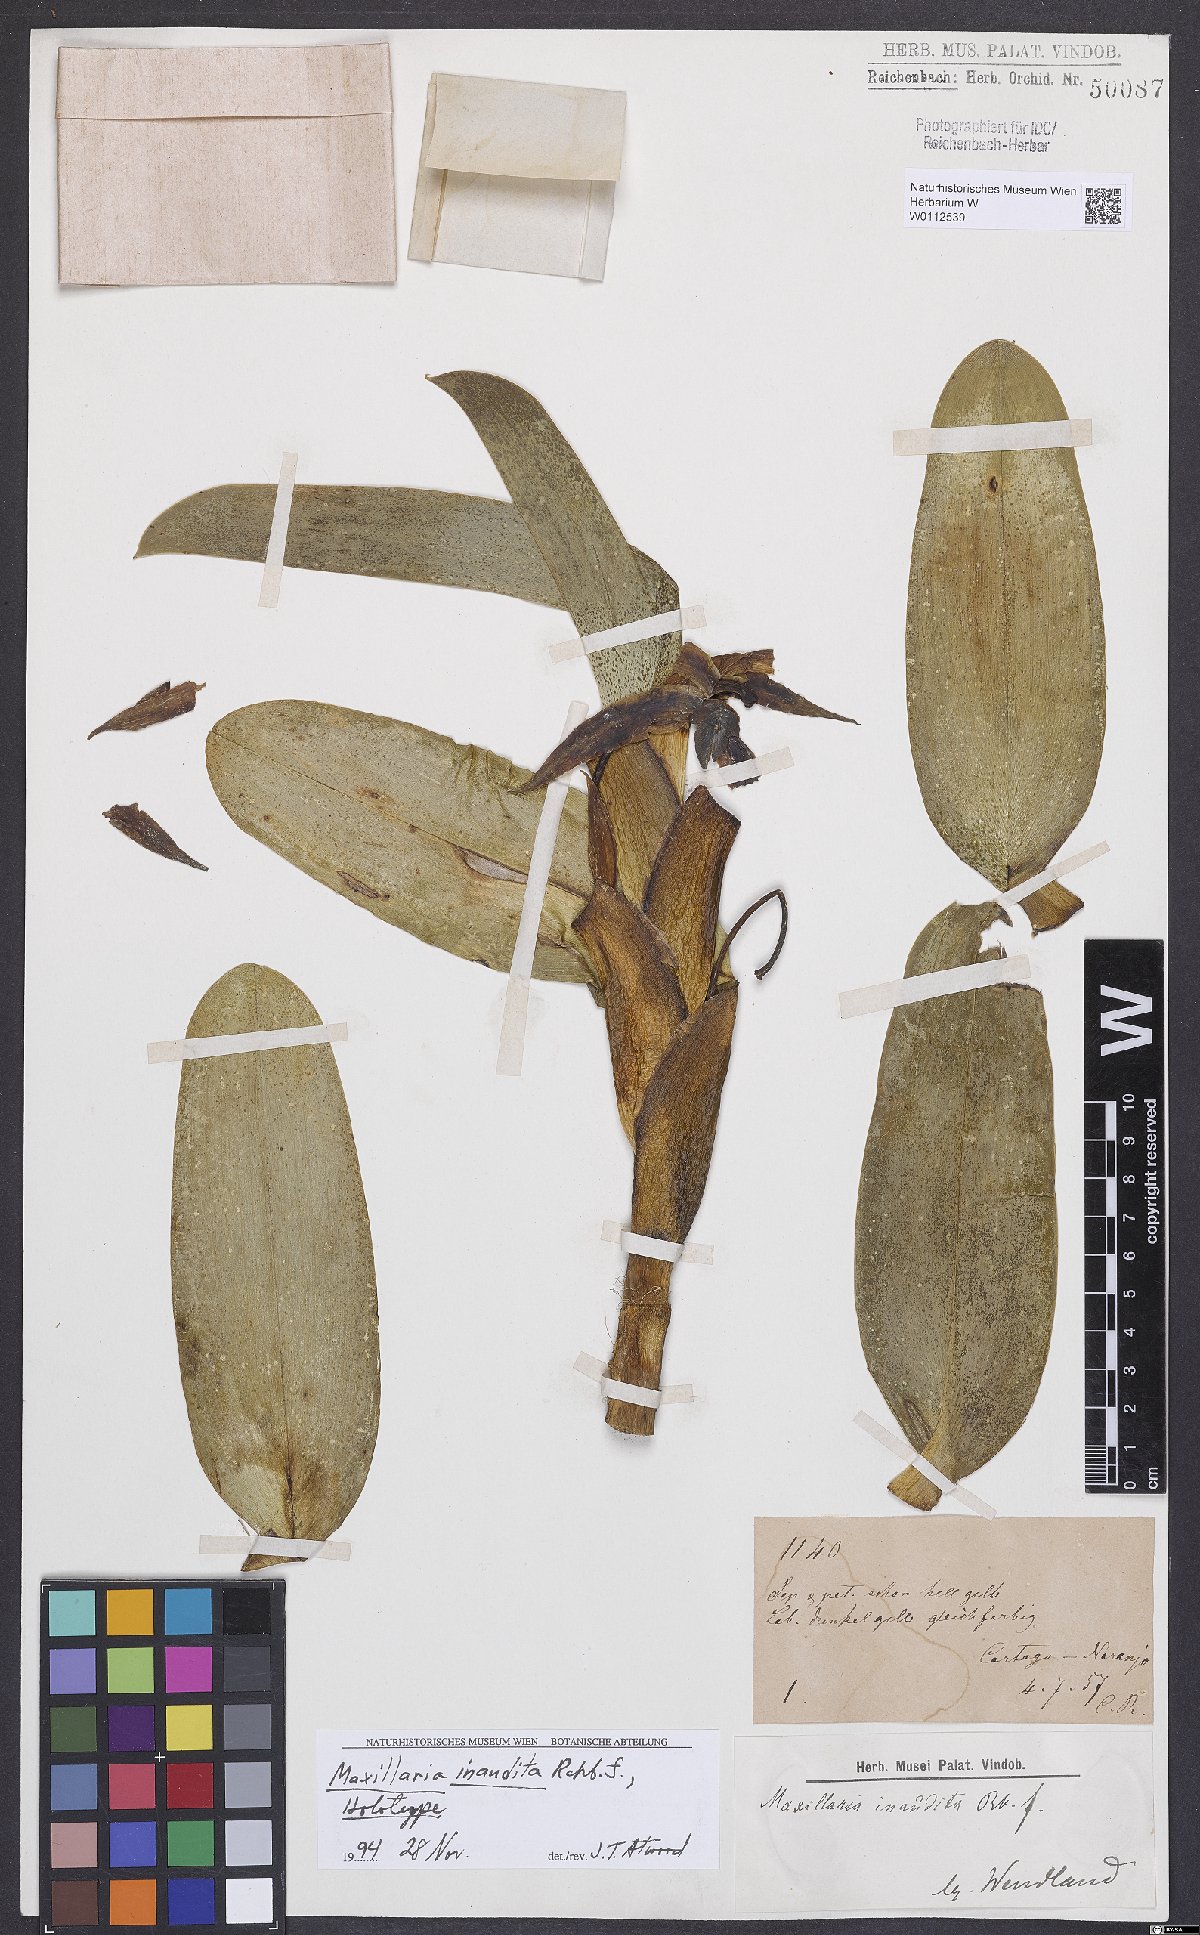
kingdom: Plantae
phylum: Tracheophyta
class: Liliopsida
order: Asparagales
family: Orchidaceae
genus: Maxillaria
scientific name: Maxillaria inaudita
